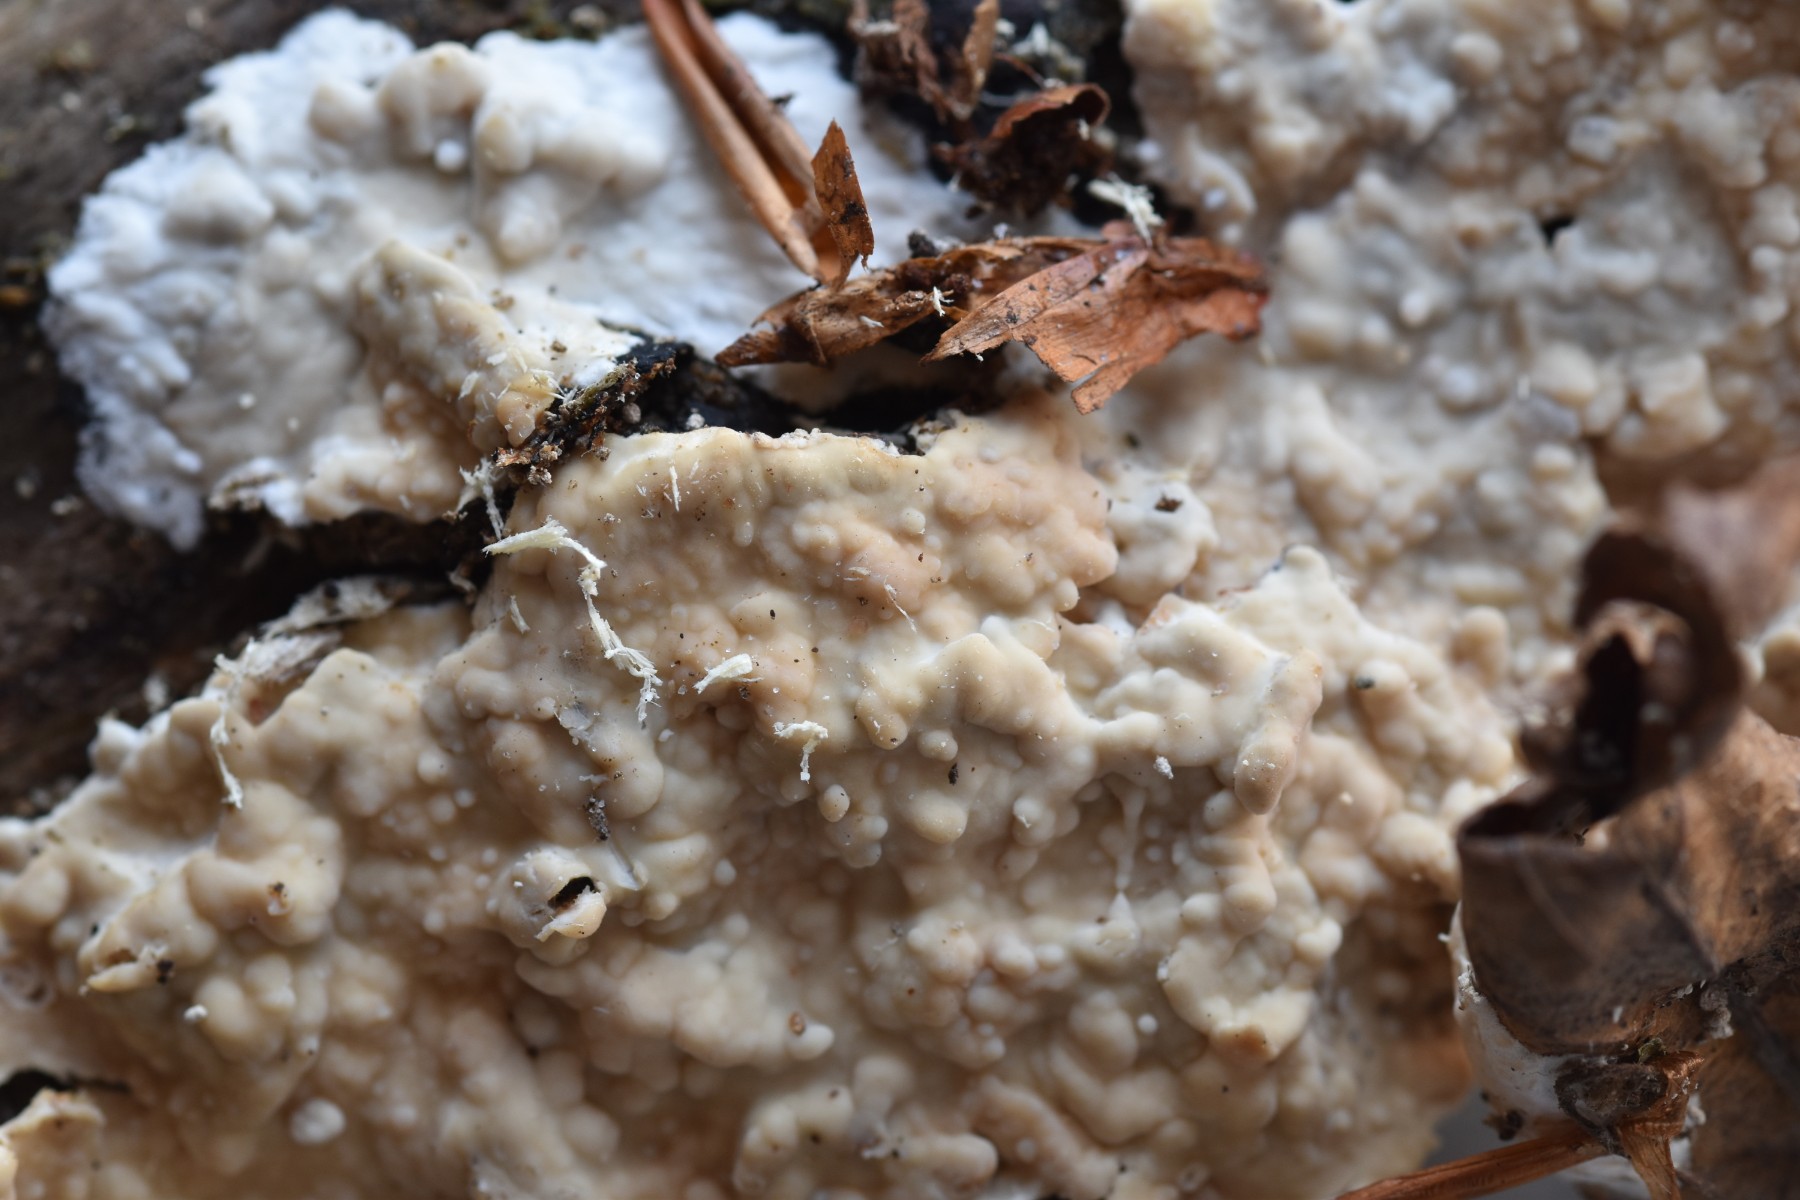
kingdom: Fungi
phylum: Basidiomycota
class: Agaricomycetes
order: Polyporales
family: Phanerochaetaceae
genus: Phanerochaete
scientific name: Phanerochaete laevis
